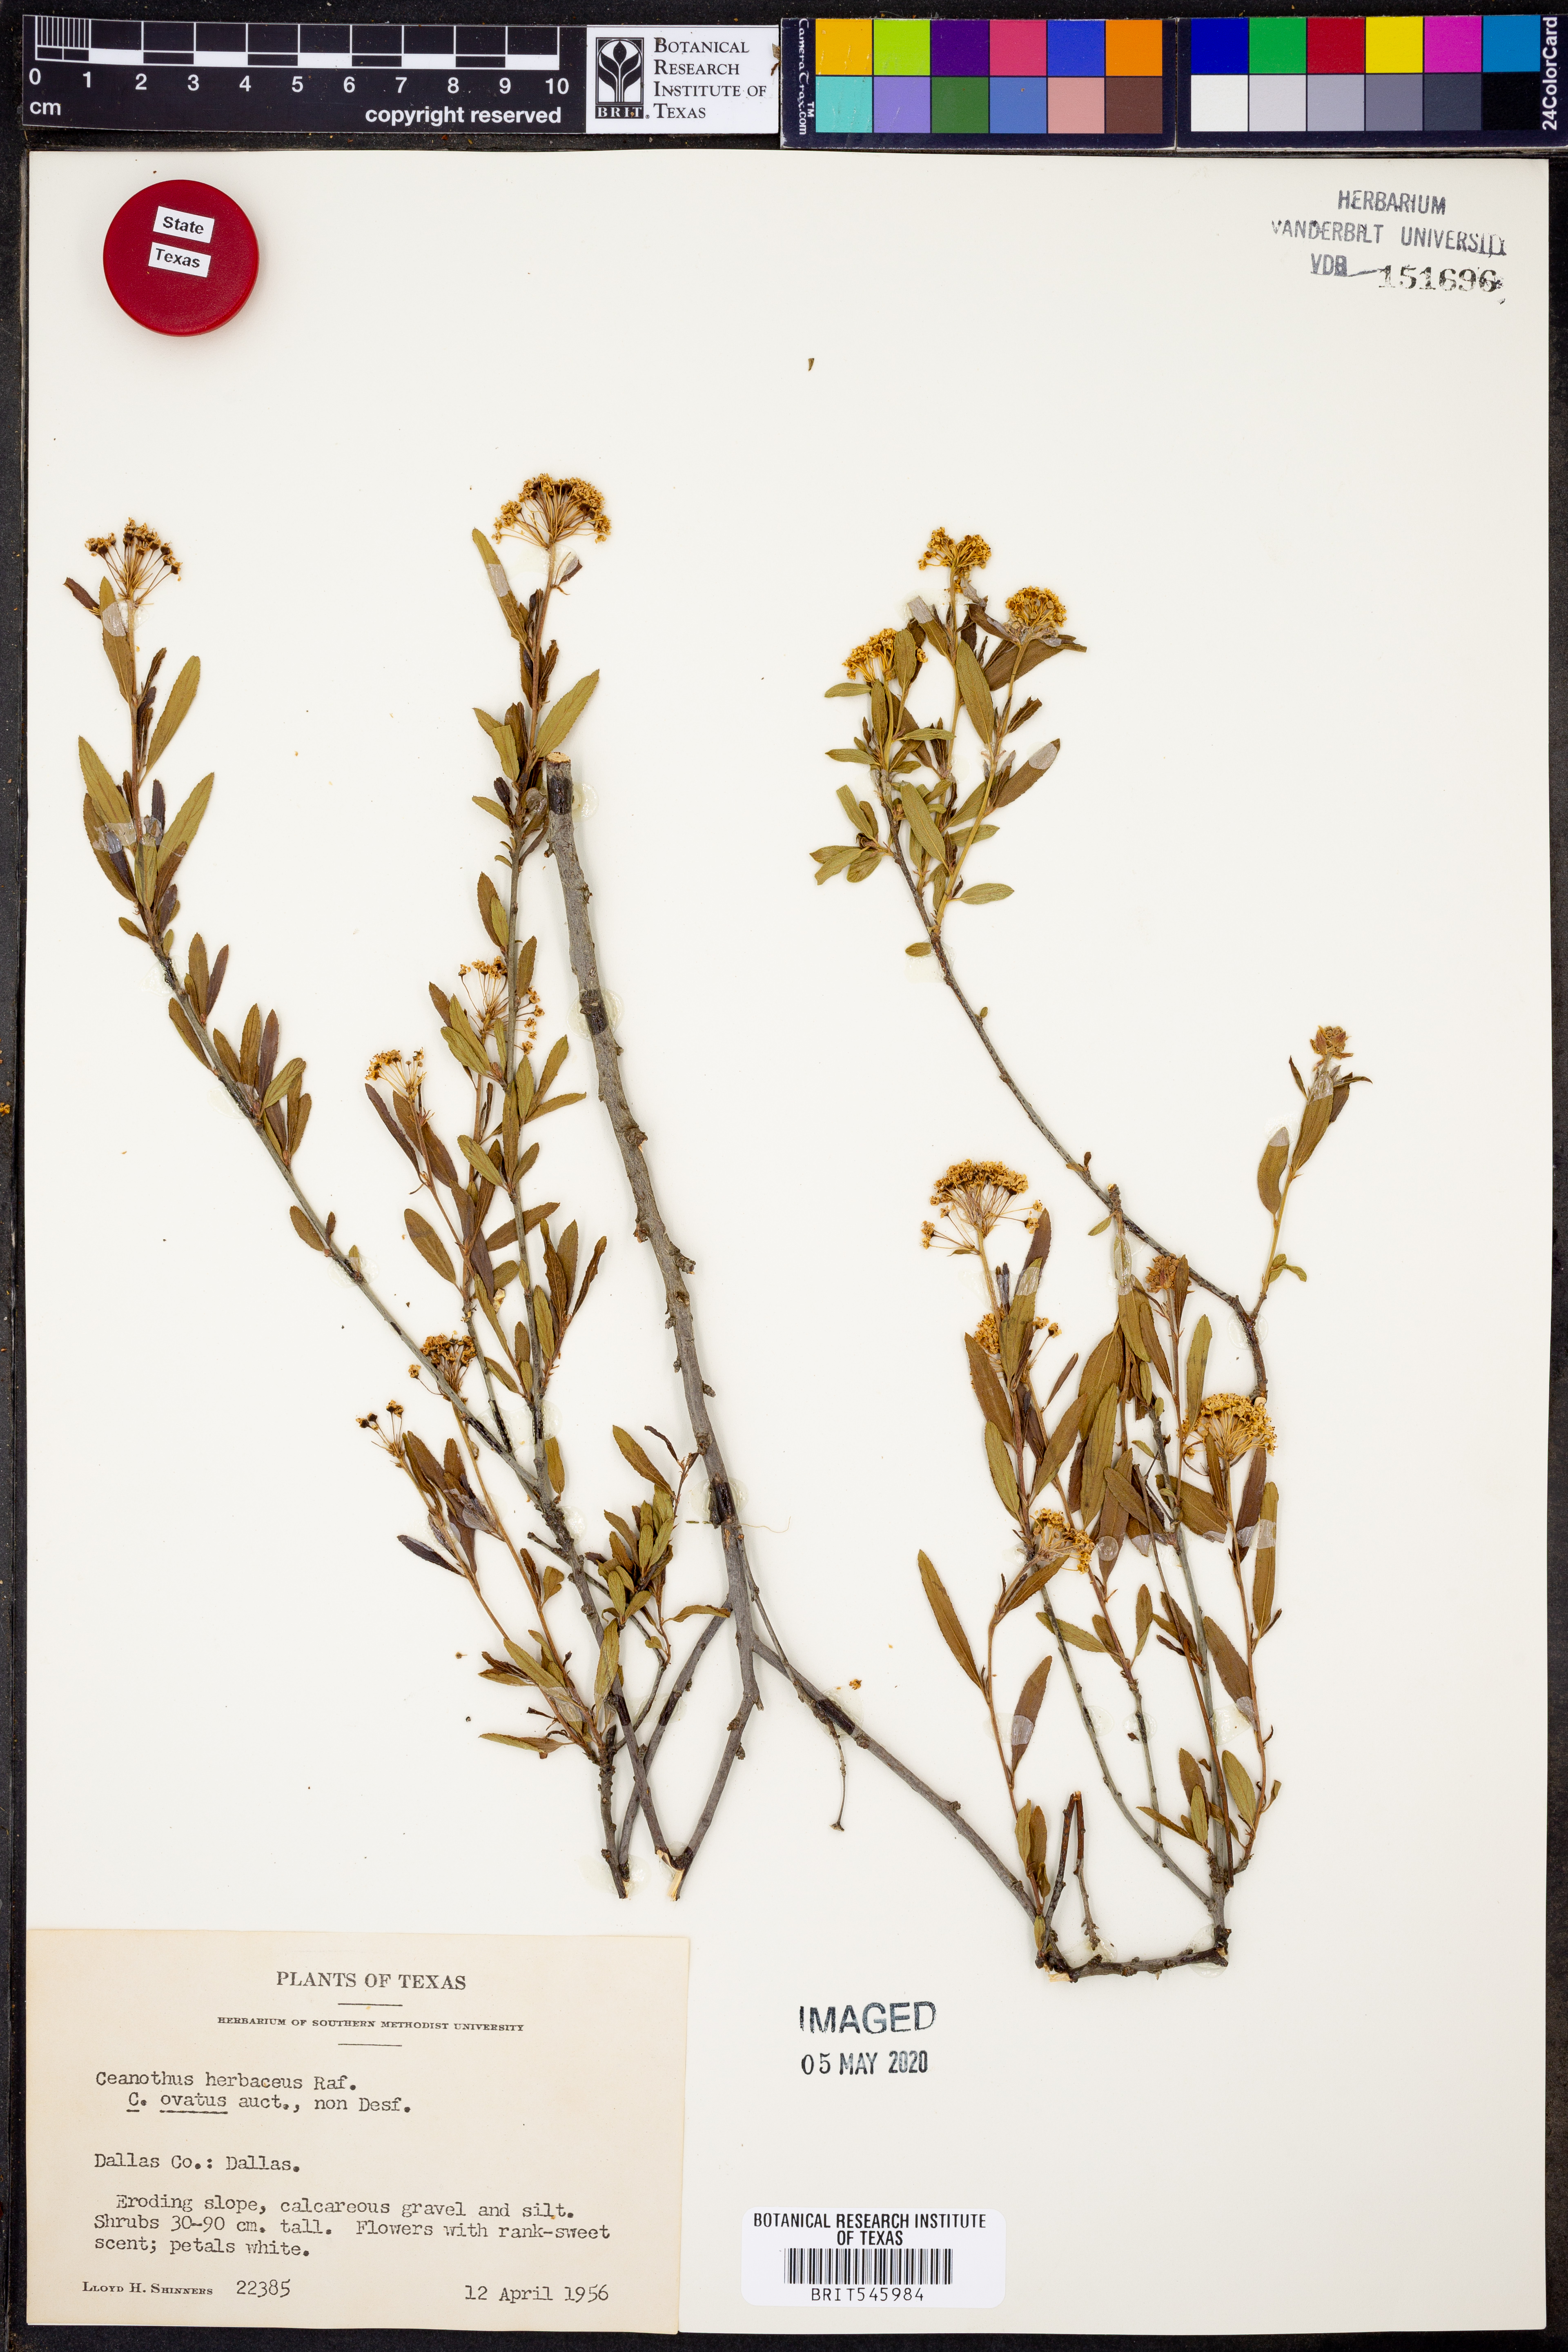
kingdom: Plantae
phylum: Tracheophyta
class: Magnoliopsida
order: Rosales
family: Rhamnaceae
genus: Ceanothus
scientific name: Ceanothus herbaceus
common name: Inland ceanothus
